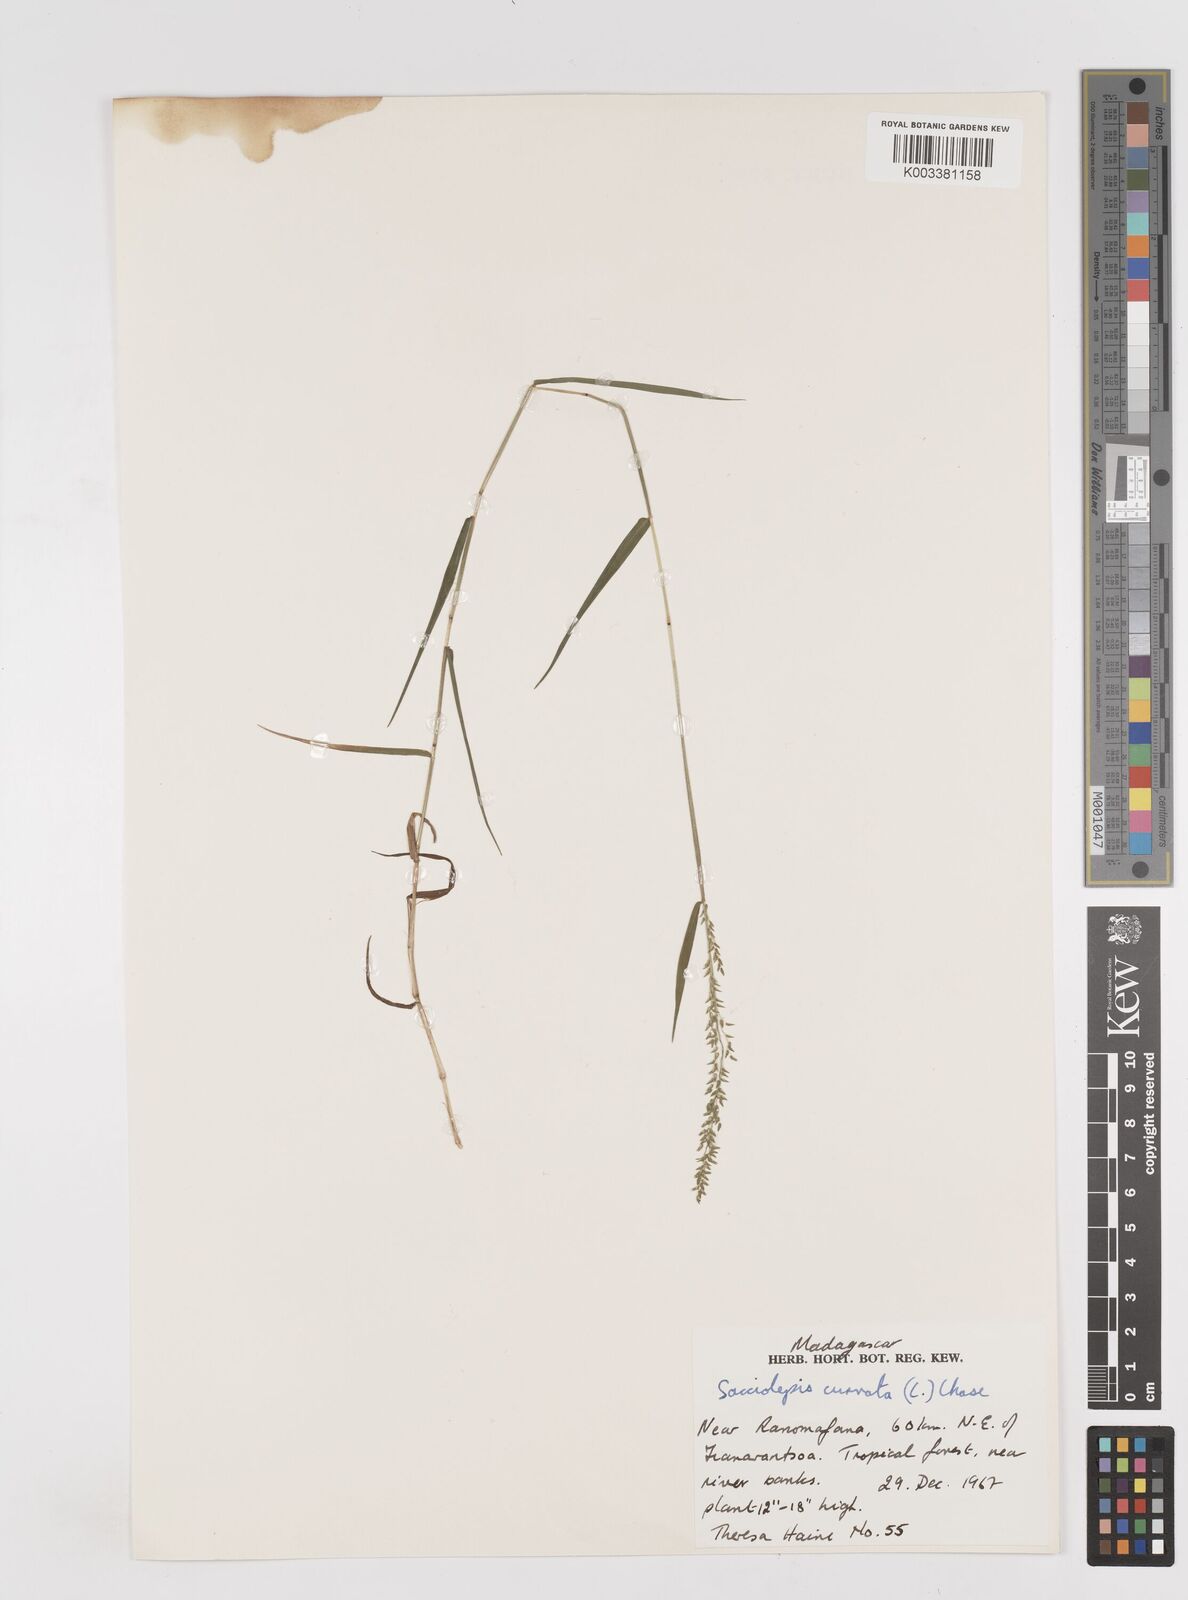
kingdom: Plantae
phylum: Tracheophyta
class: Liliopsida
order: Poales
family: Poaceae
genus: Sacciolepis
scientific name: Sacciolepis curvata
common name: Forest hood grass
